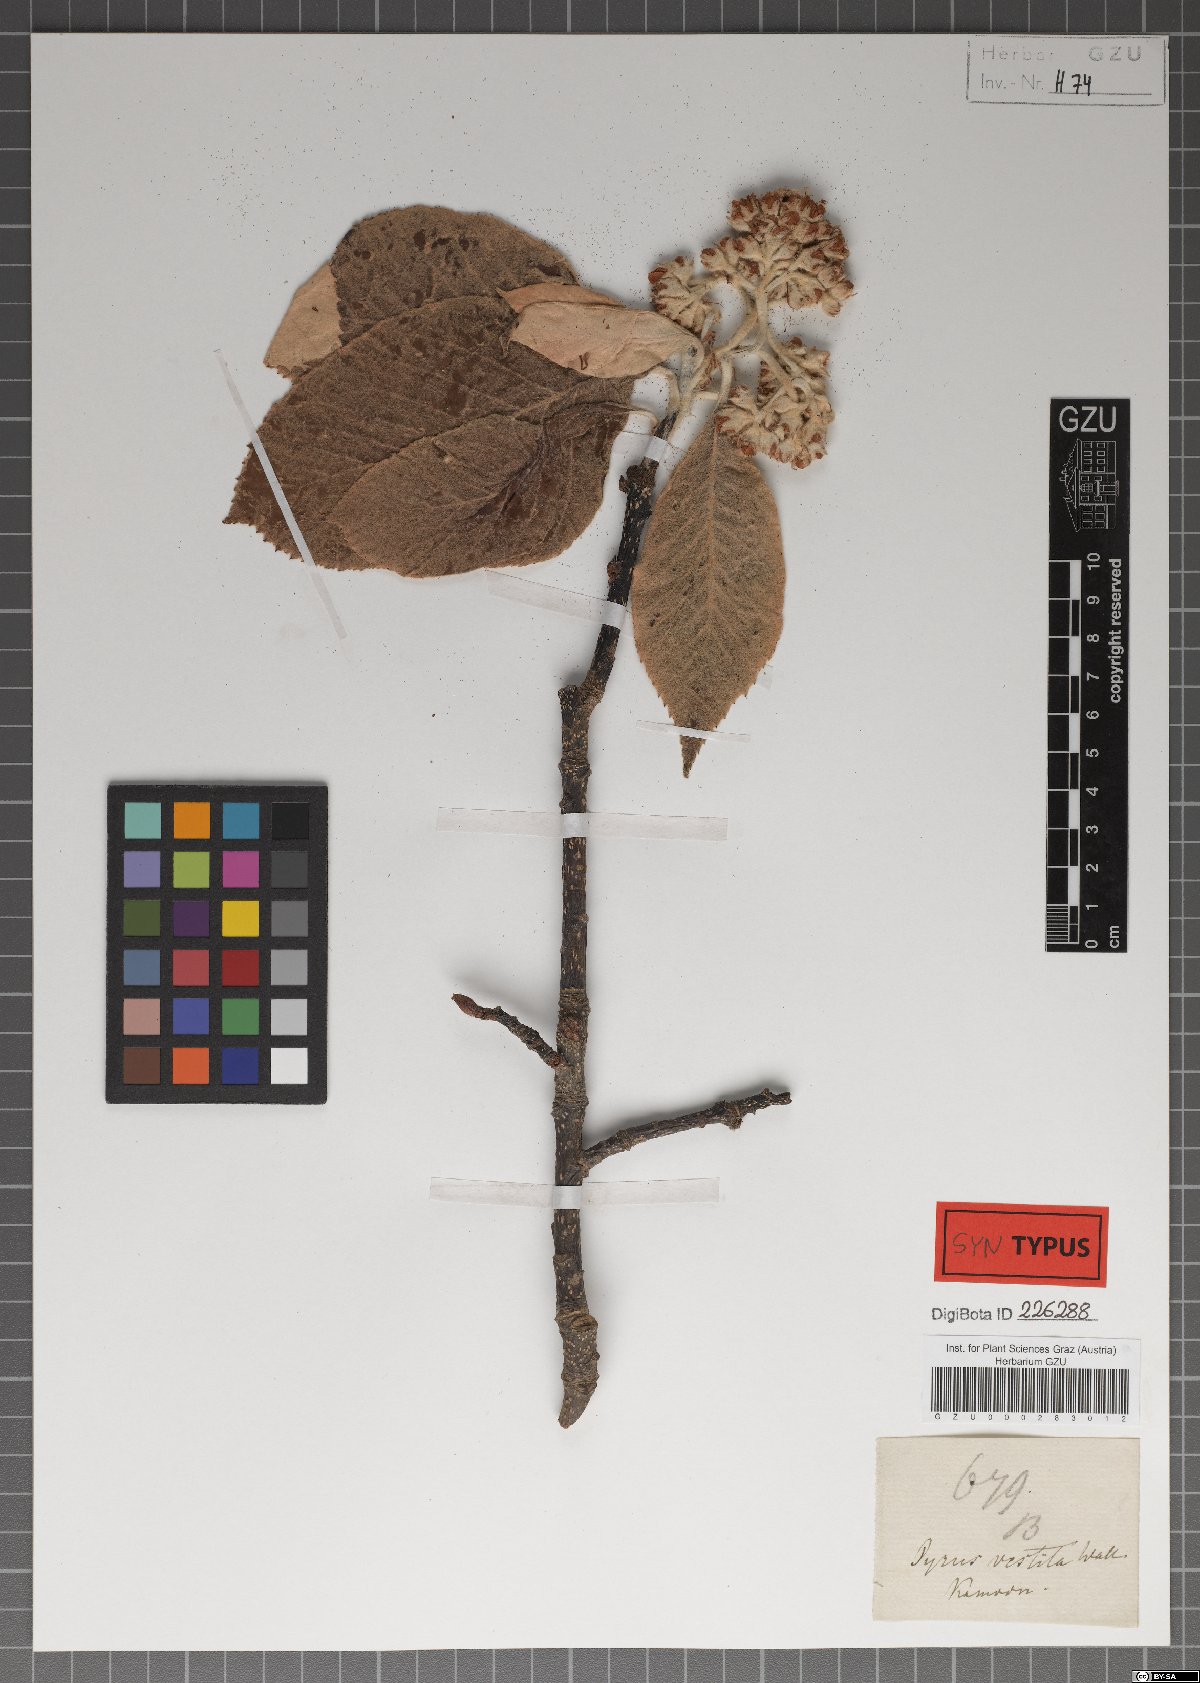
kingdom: Plantae
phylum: Tracheophyta
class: Magnoliopsida
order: Rosales
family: Rosaceae
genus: Sorbus
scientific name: Sorbus vestita
